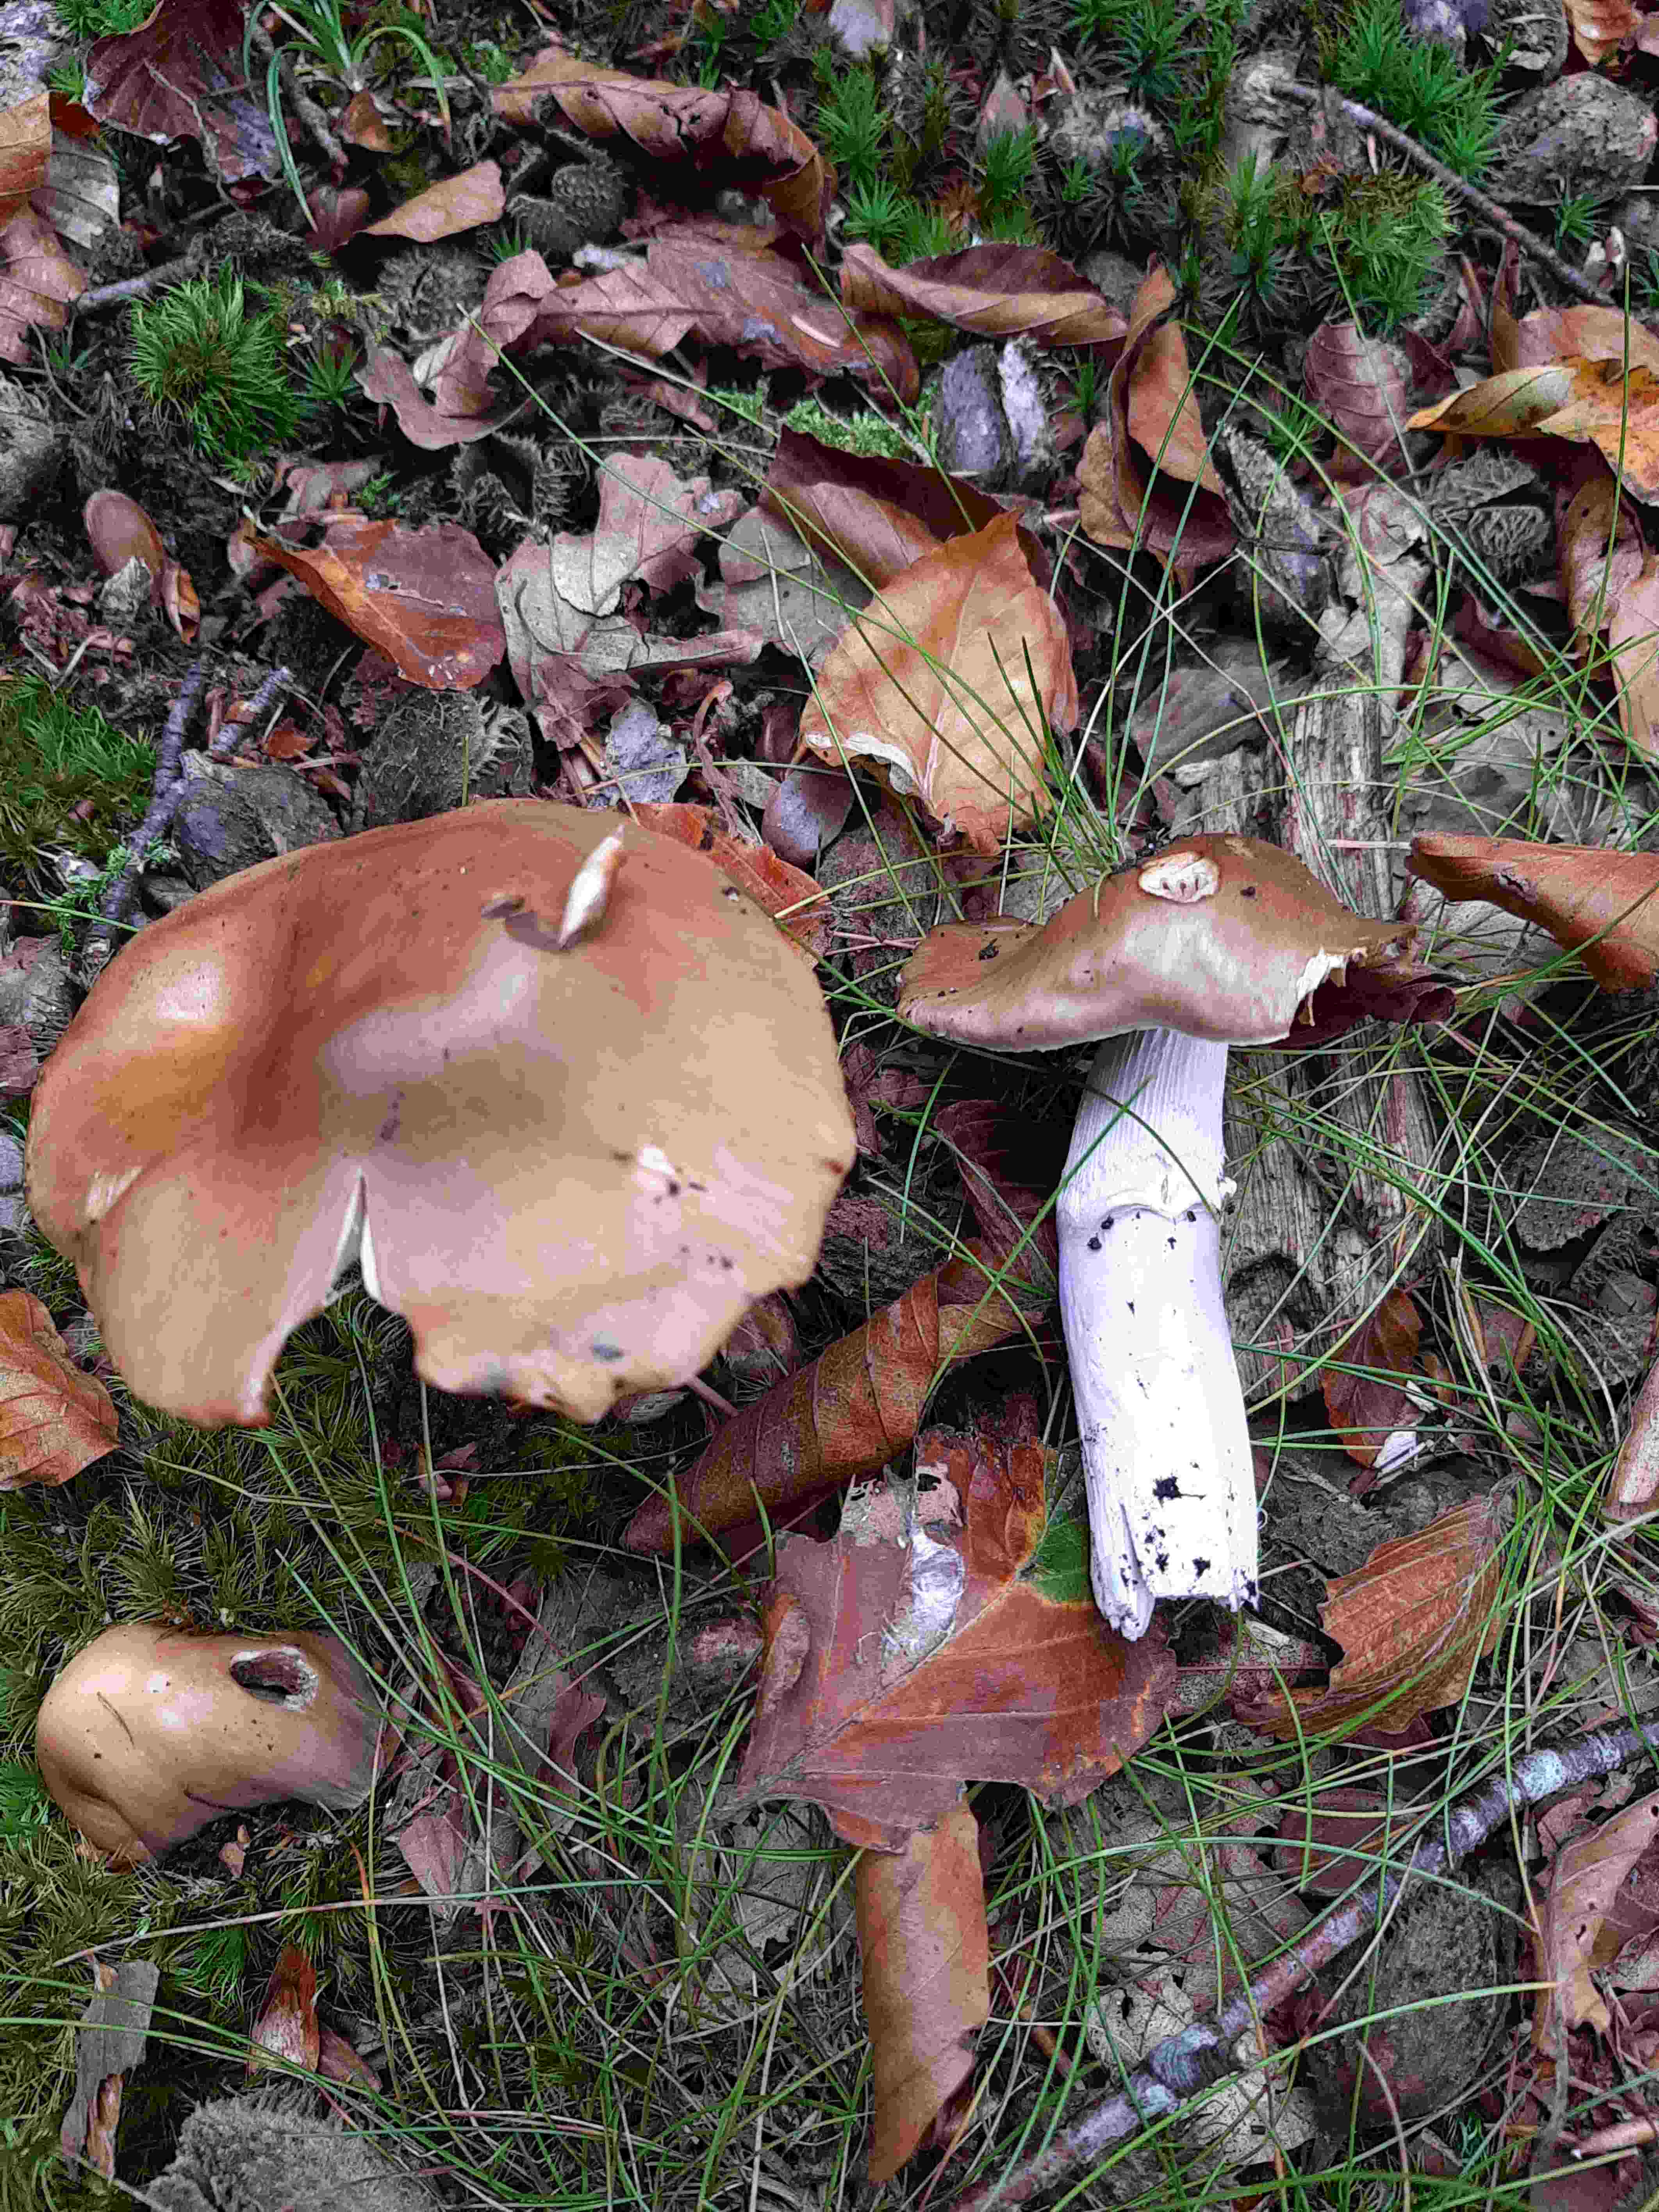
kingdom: Fungi
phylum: Basidiomycota
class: Agaricomycetes
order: Agaricales
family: Cortinariaceae
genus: Cortinarius
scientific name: Cortinarius elatior
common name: høj slørhat
